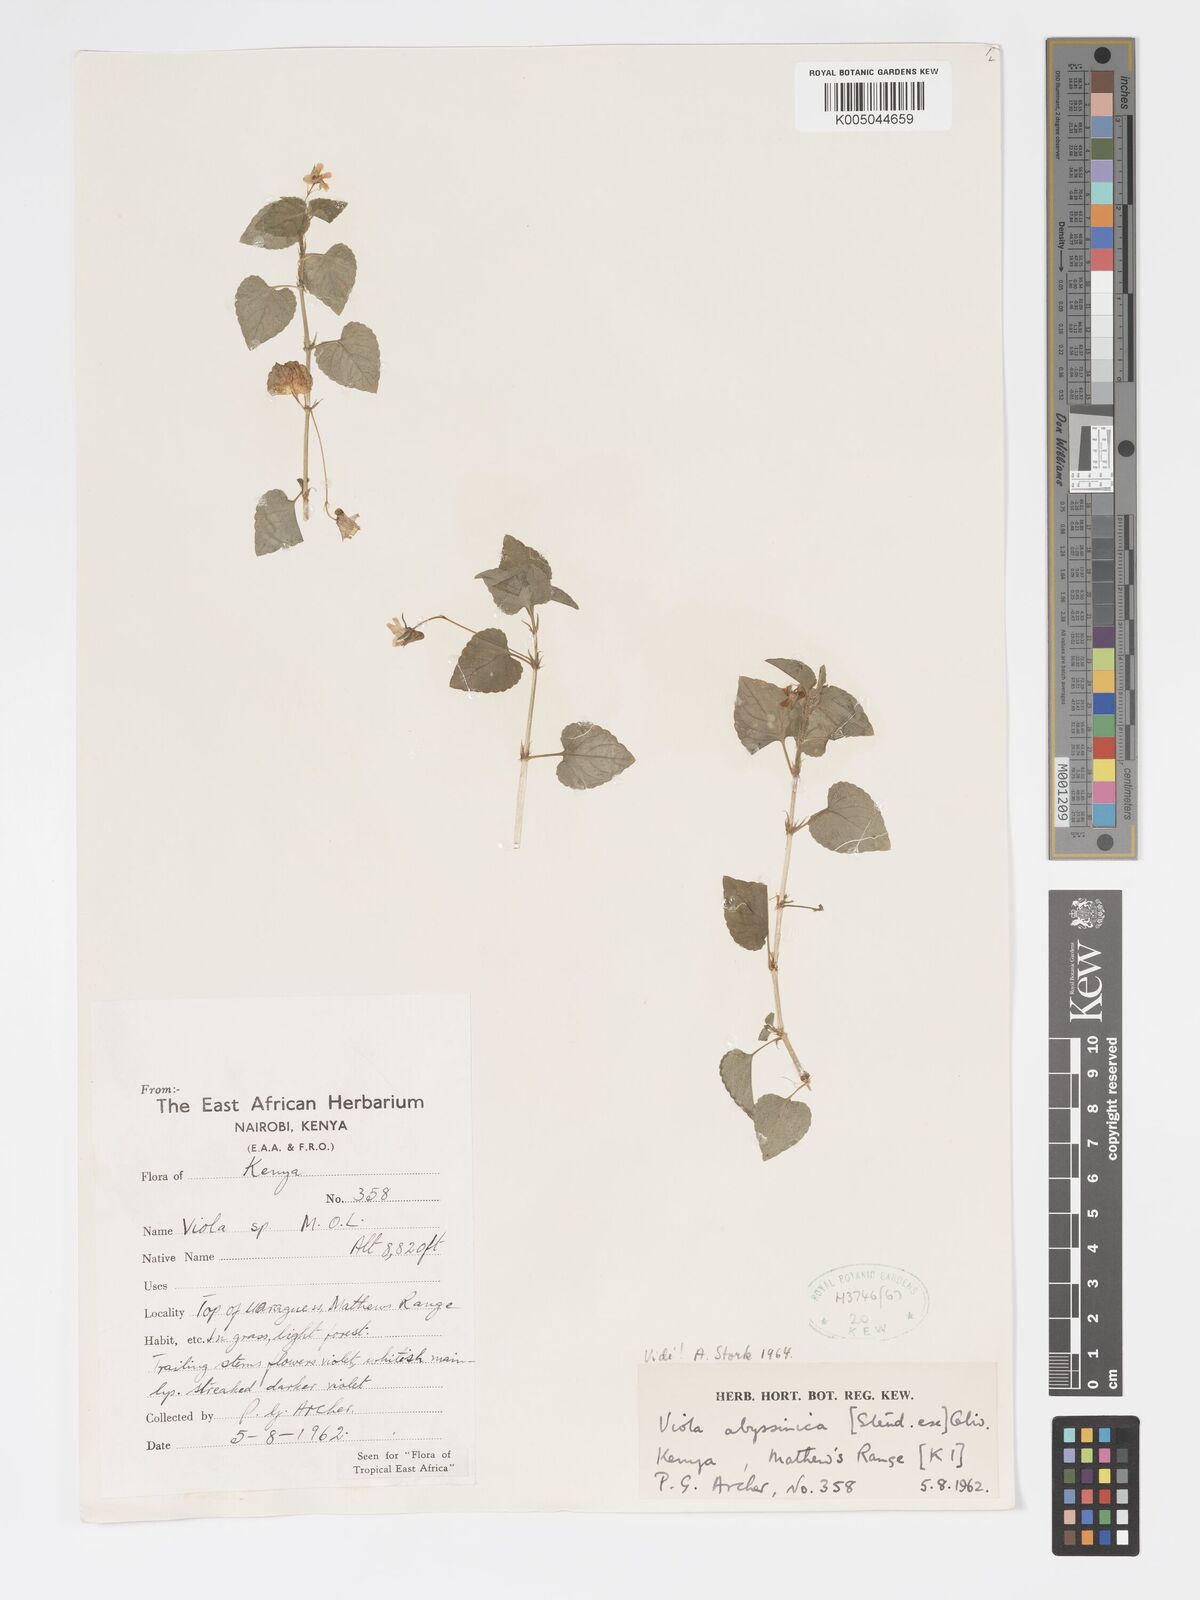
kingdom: Plantae
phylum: Tracheophyta
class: Magnoliopsida
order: Malpighiales
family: Violaceae
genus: Viola
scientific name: Viola abyssinica
